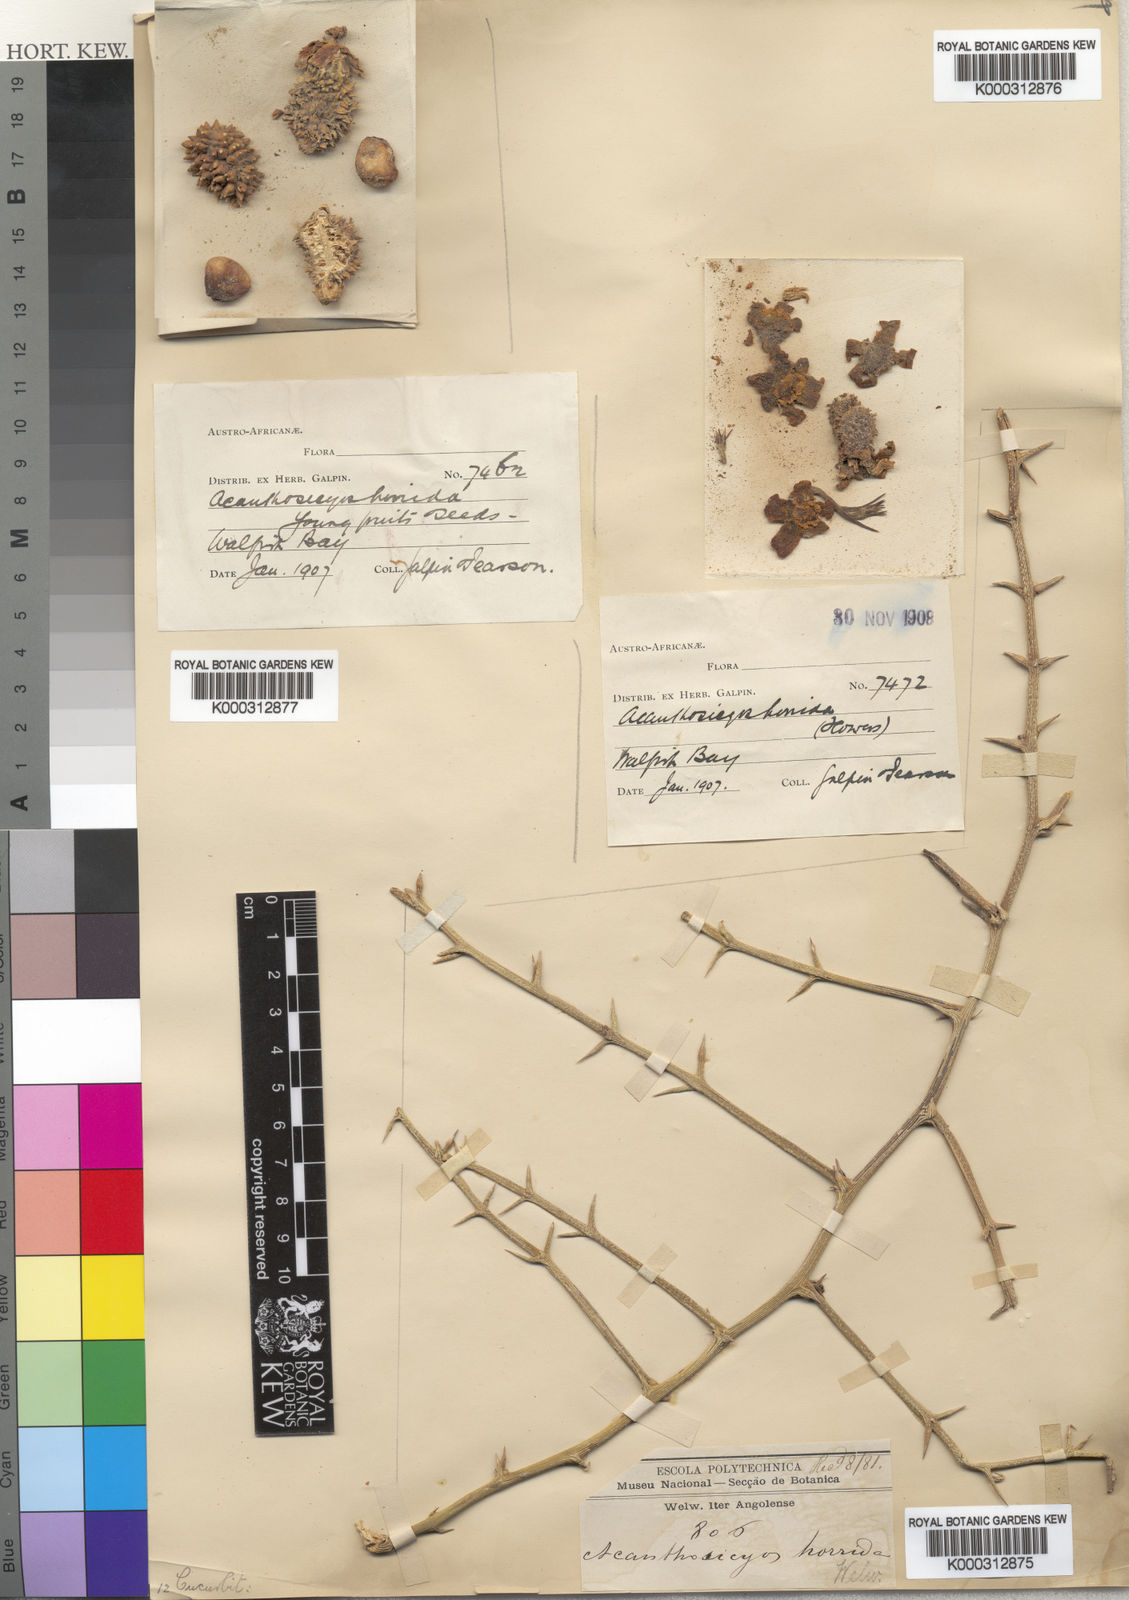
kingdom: Plantae
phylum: Tracheophyta
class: Magnoliopsida
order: Cucurbitales
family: Cucurbitaceae
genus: Acanthosicyos
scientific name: Acanthosicyos
